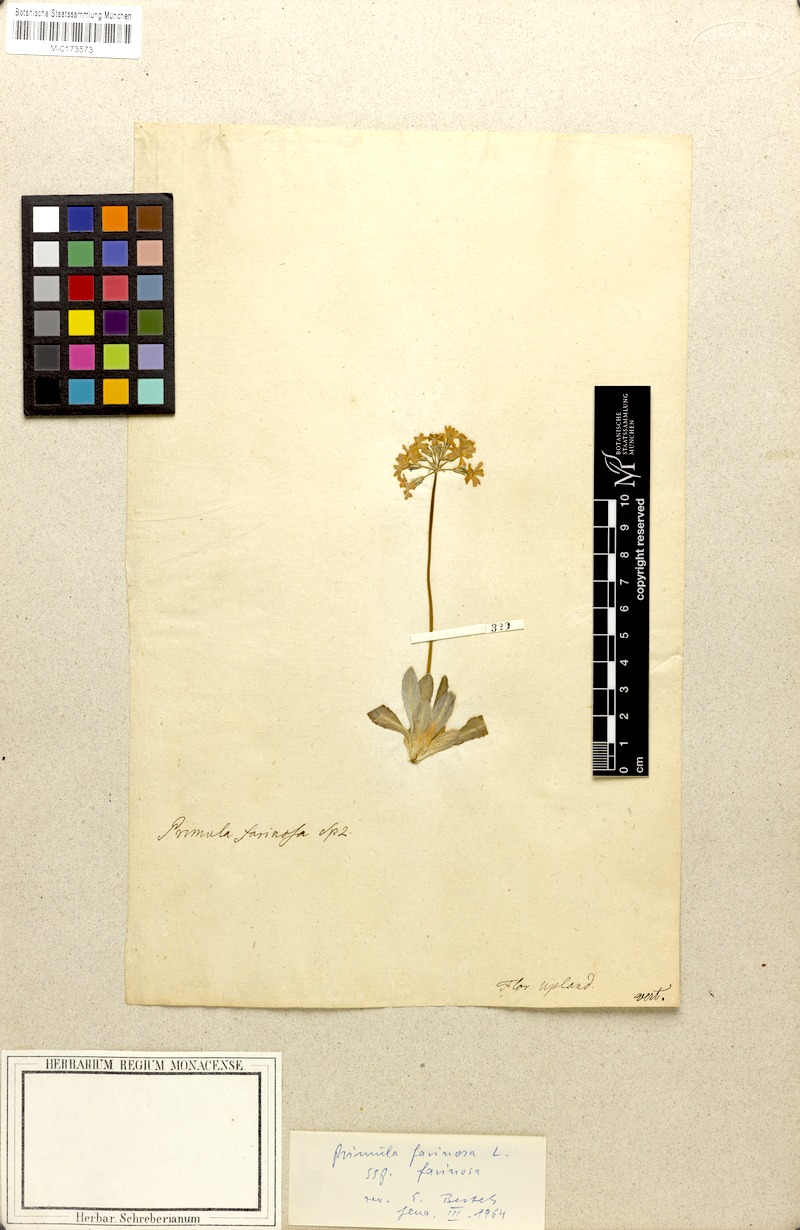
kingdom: Plantae
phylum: Tracheophyta
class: Magnoliopsida
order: Ericales
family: Primulaceae
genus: Primula
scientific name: Primula farinosa
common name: Bird's-eye primrose
